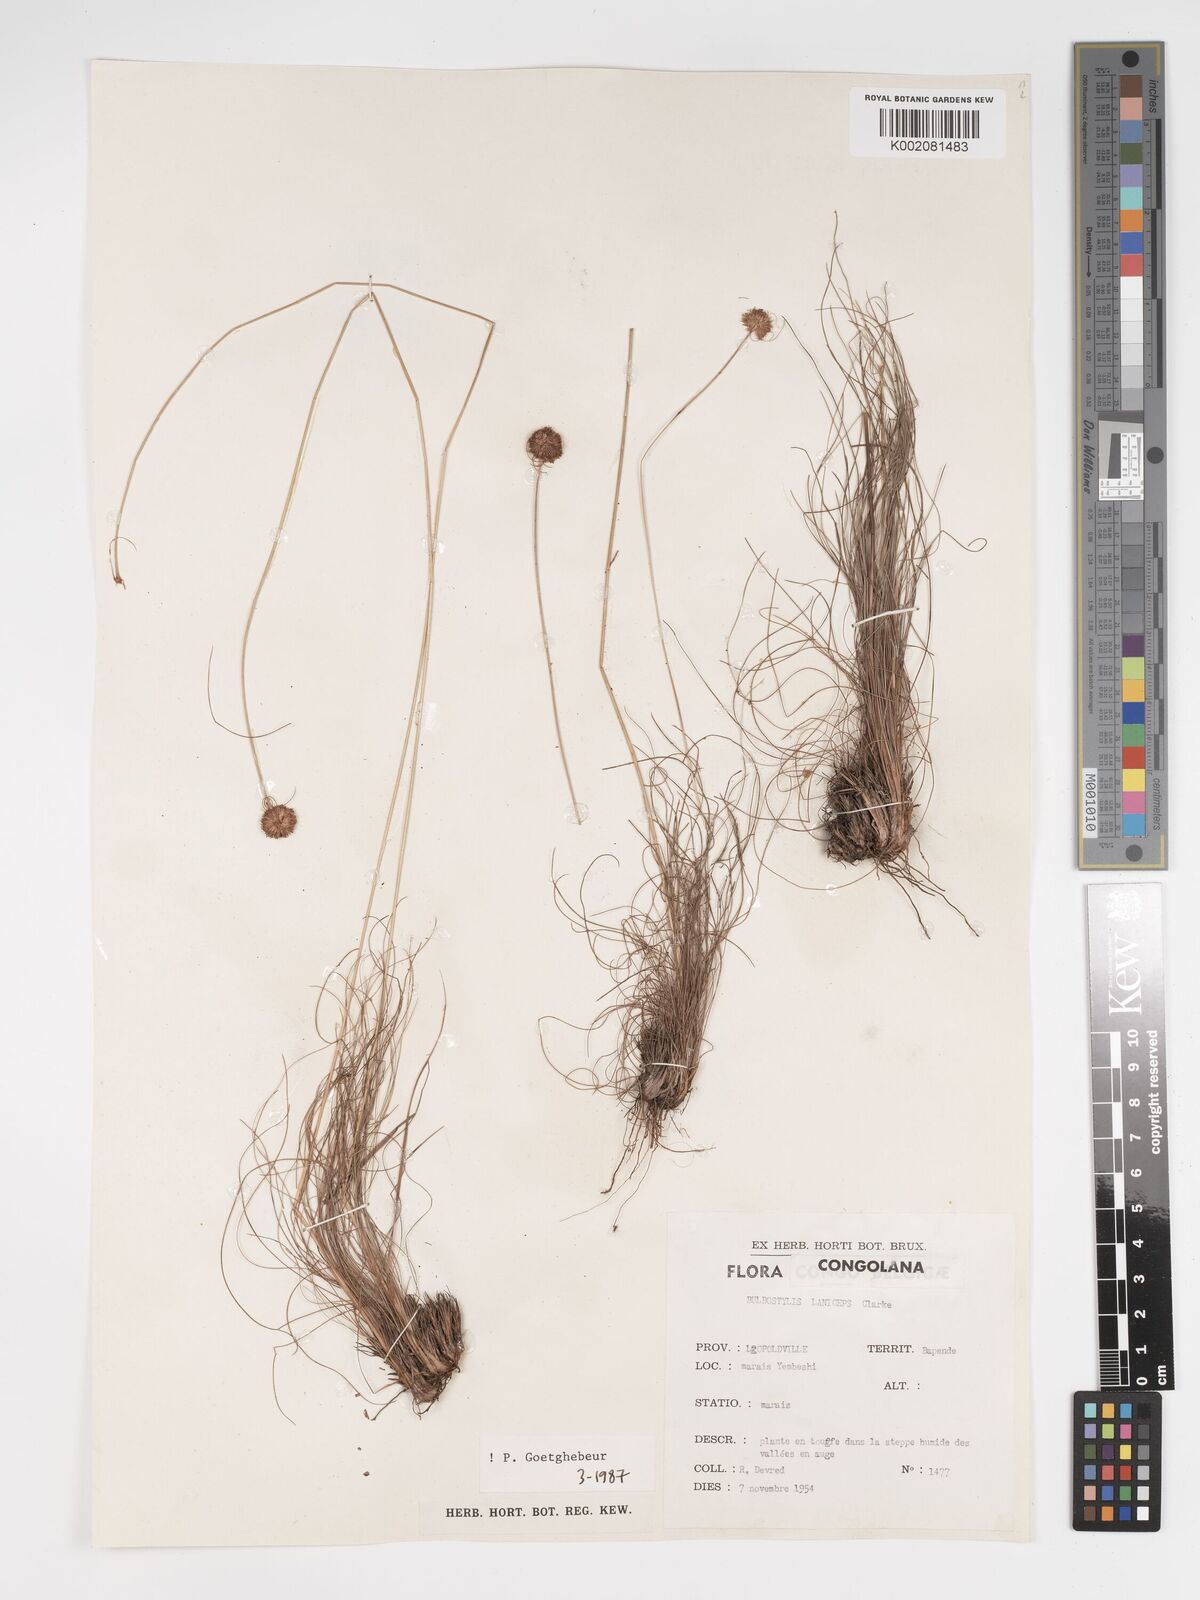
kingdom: Plantae
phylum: Tracheophyta
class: Liliopsida
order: Poales
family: Cyperaceae
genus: Bulbostylis
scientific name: Bulbostylis laniceps
